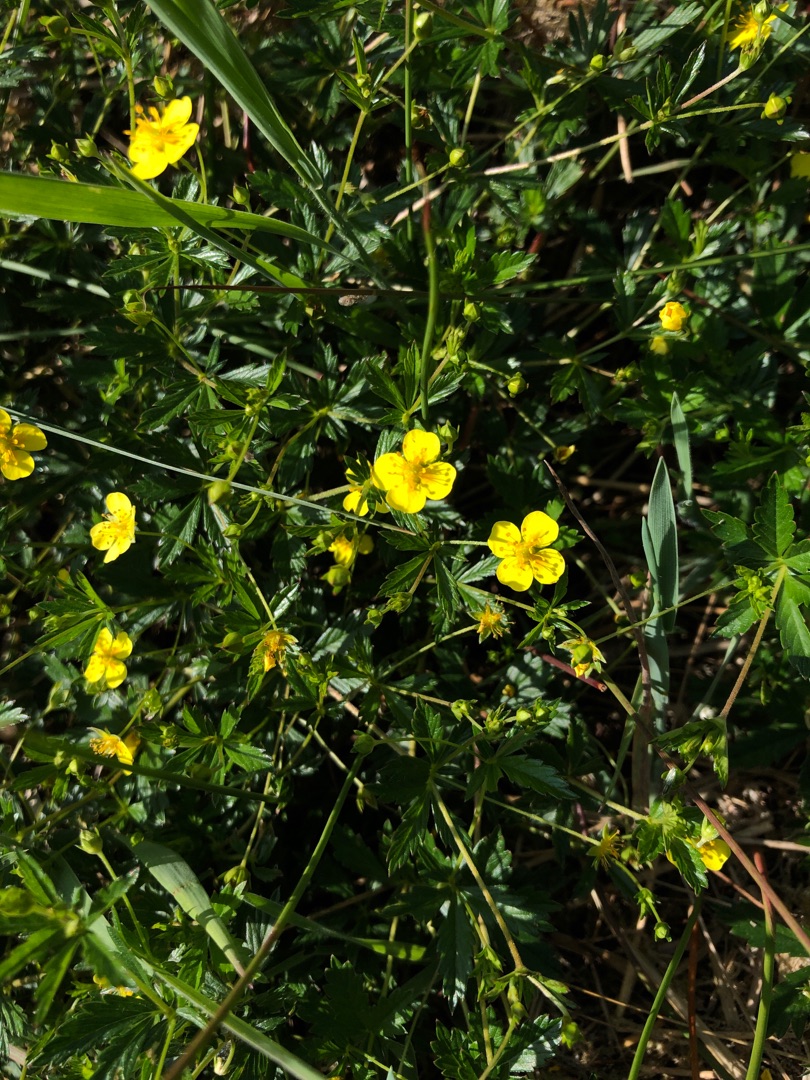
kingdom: Plantae
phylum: Tracheophyta
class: Magnoliopsida
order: Rosales
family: Rosaceae
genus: Potentilla
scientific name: Potentilla erecta
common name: Tormentil
